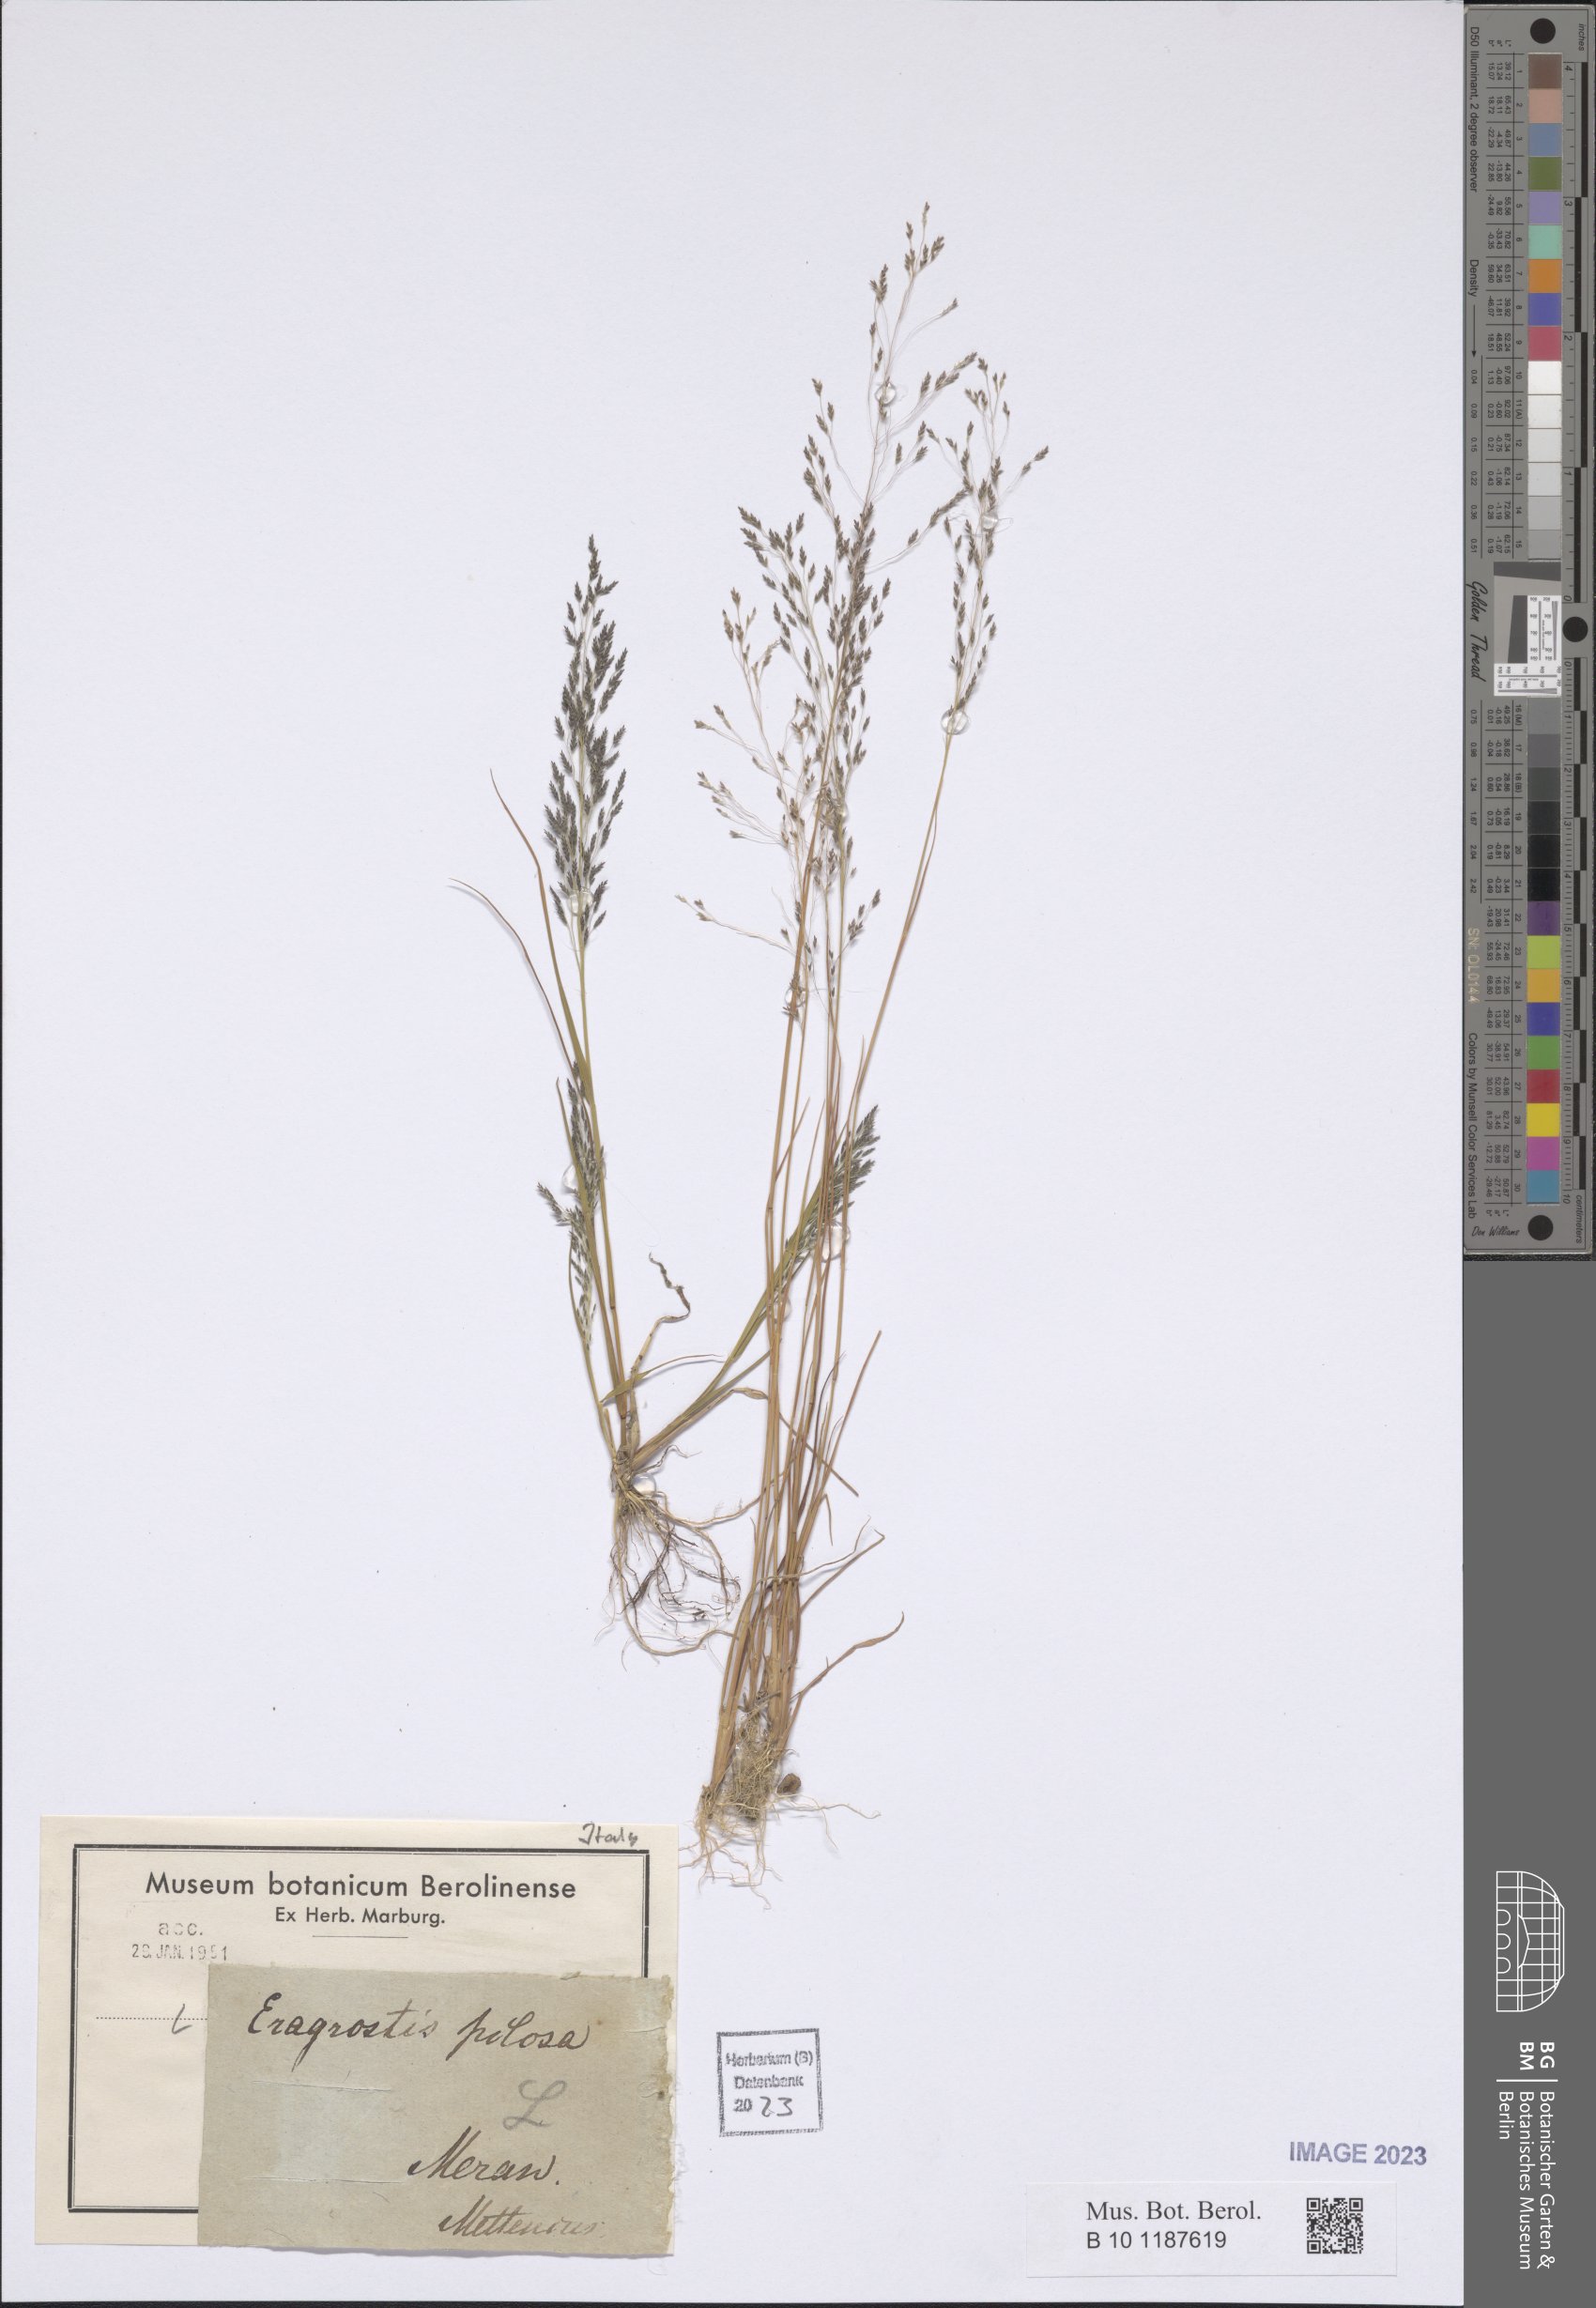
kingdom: Plantae
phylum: Tracheophyta
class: Liliopsida
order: Poales
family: Poaceae
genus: Eragrostis
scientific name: Eragrostis pilosa
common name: Indian lovegrass
